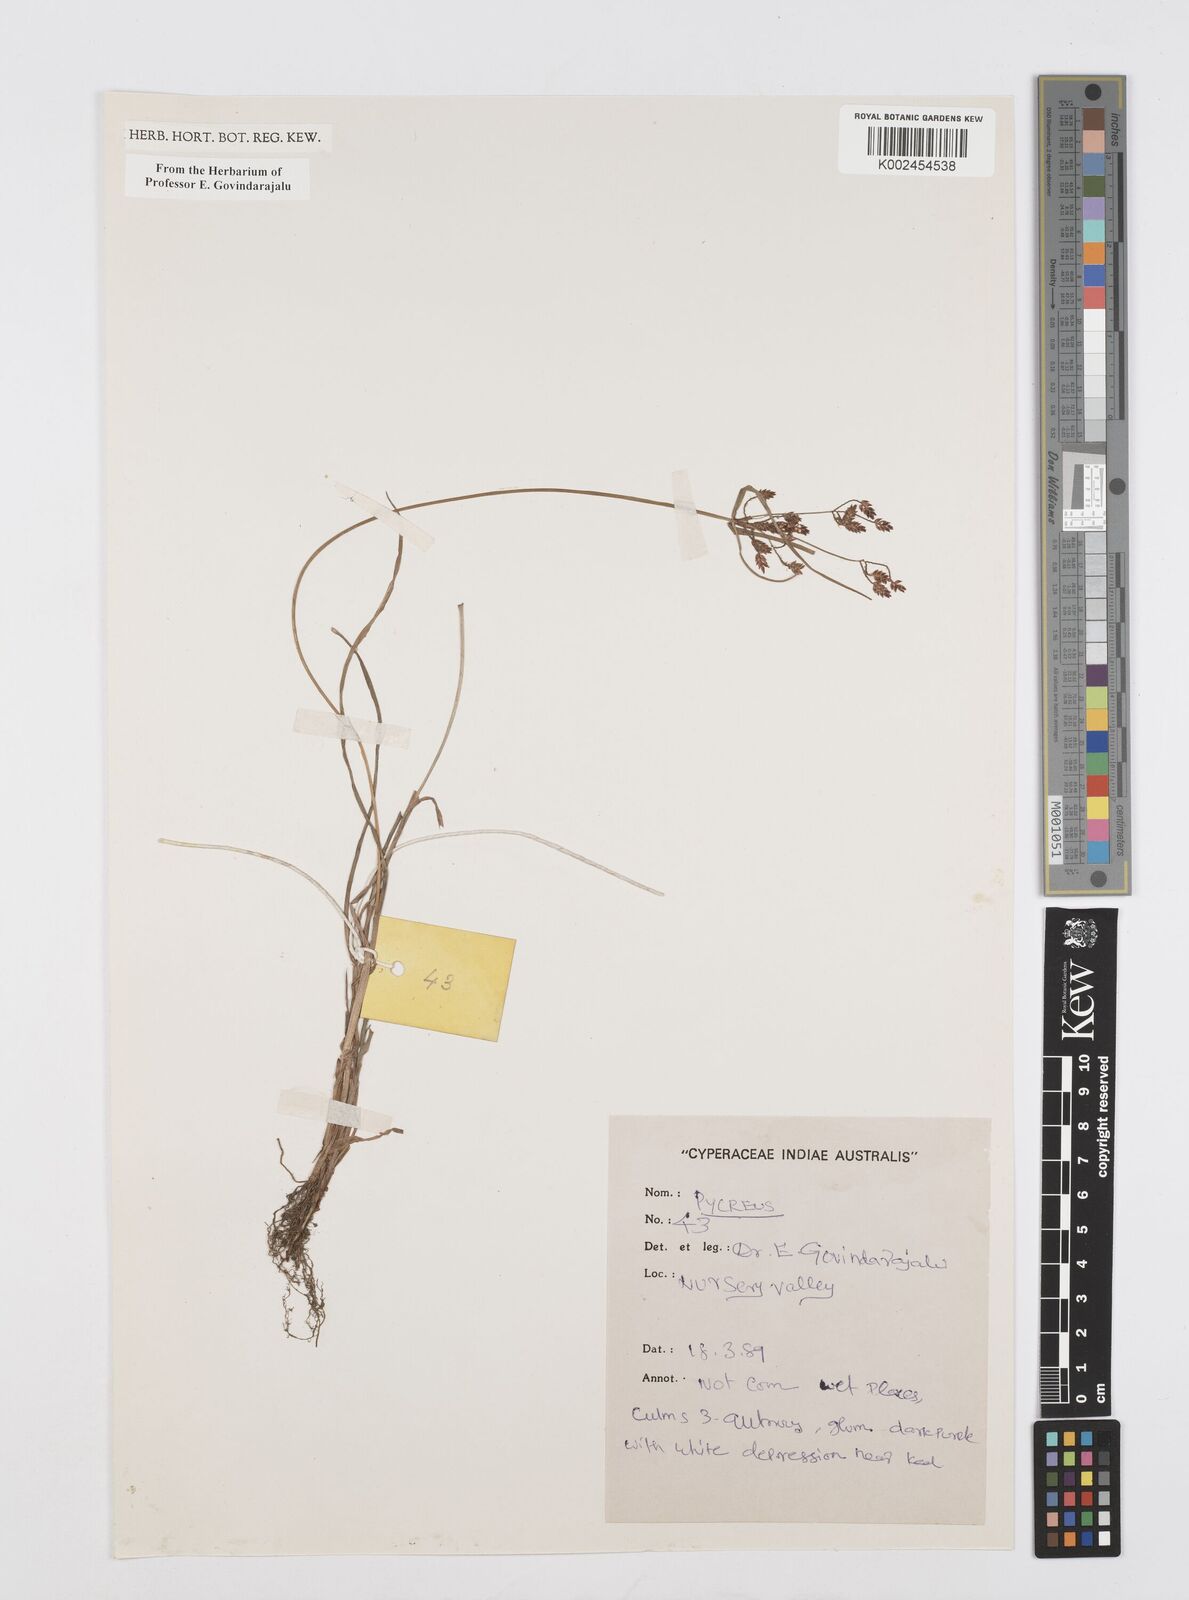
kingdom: Plantae
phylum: Tracheophyta
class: Liliopsida
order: Poales
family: Cyperaceae
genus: Cyperus
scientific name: Cyperus
